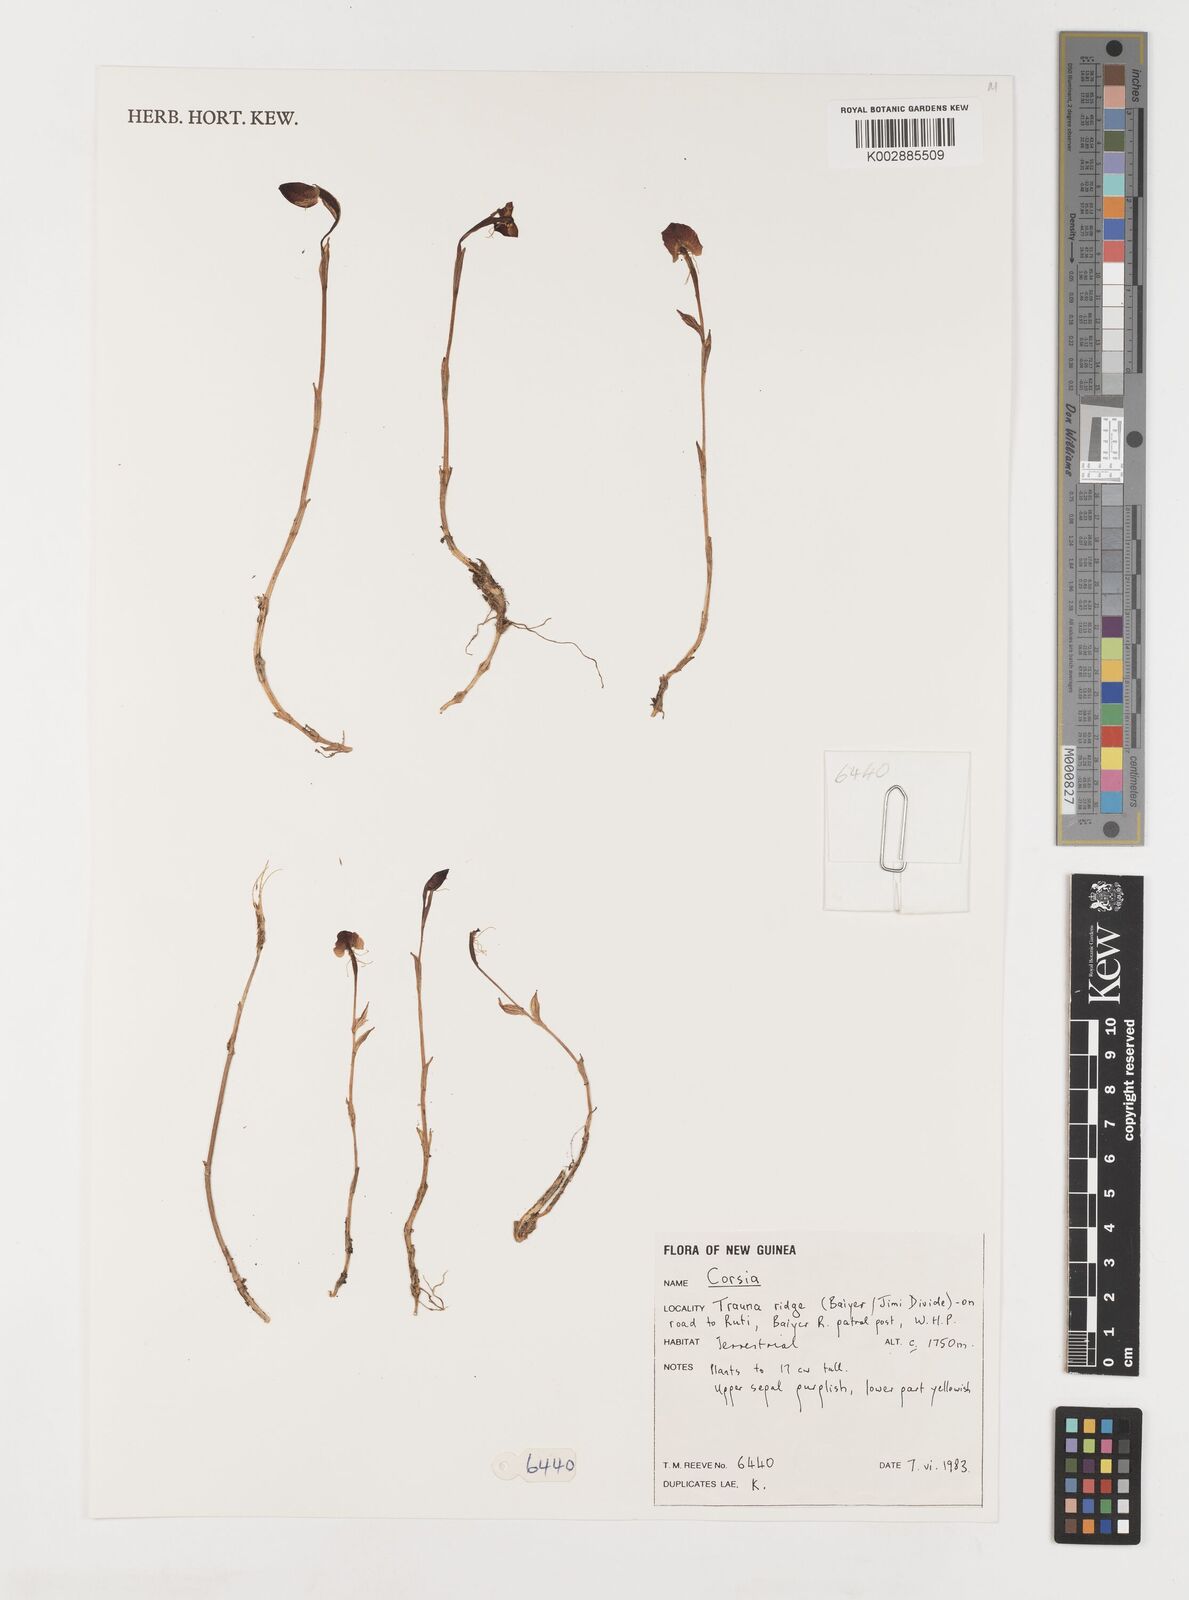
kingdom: Plantae
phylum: Tracheophyta
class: Liliopsida
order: Liliales
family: Corsiaceae
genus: Corsia
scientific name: Corsia
